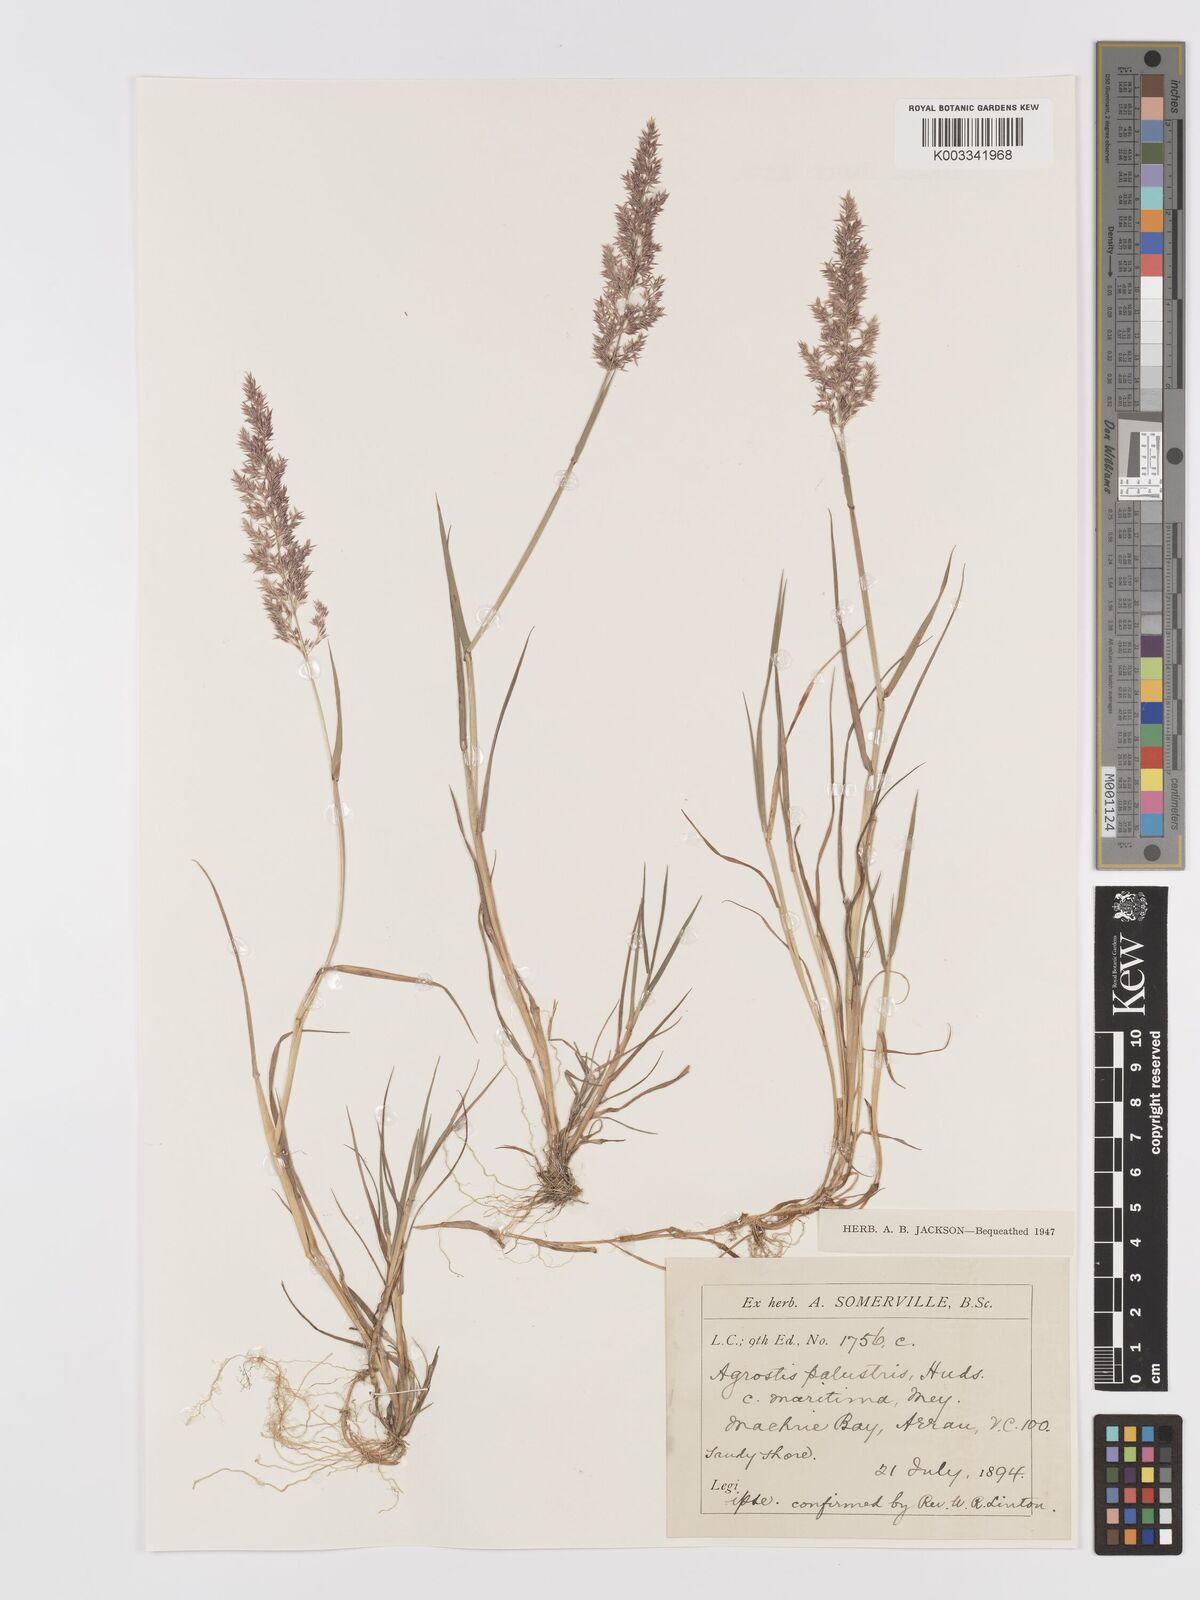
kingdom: Plantae
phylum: Tracheophyta
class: Liliopsida
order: Poales
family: Poaceae
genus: Agrostis
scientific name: Agrostis stolonifera
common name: Creeping bentgrass
